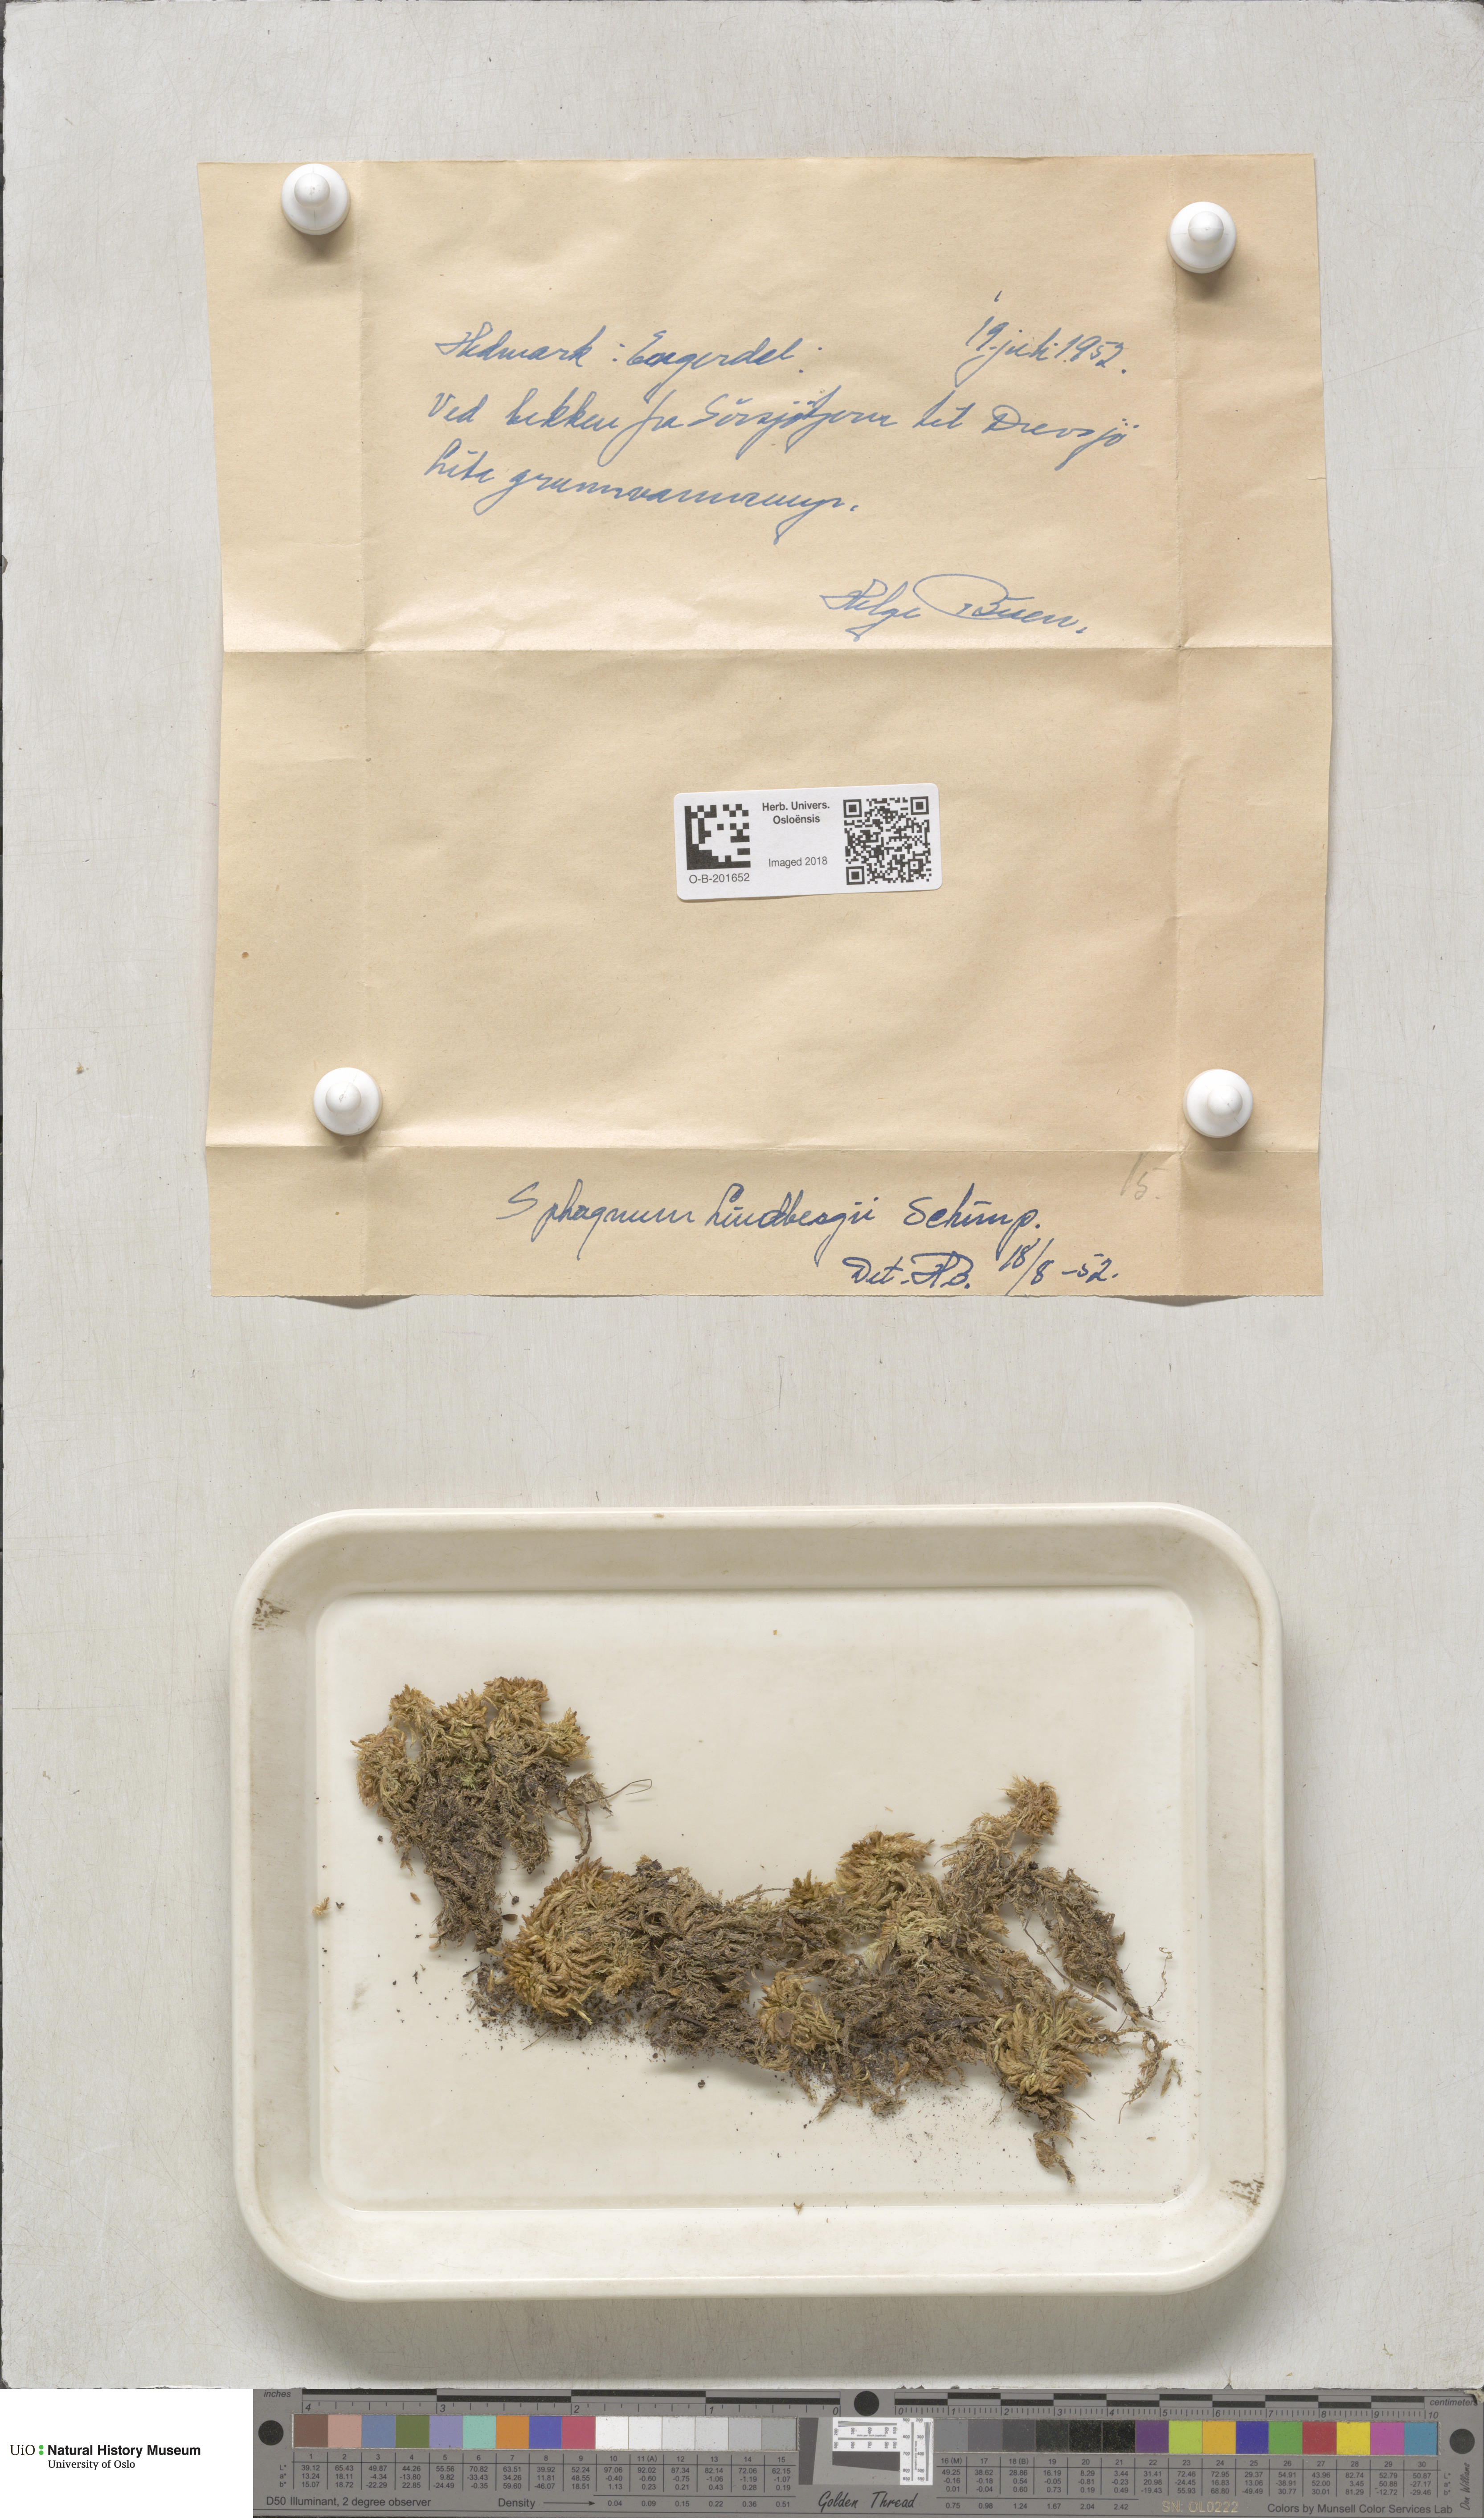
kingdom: Plantae
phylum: Bryophyta
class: Sphagnopsida
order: Sphagnales
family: Sphagnaceae
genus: Sphagnum
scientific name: Sphagnum lindbergii
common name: Lindberg's peat moss
